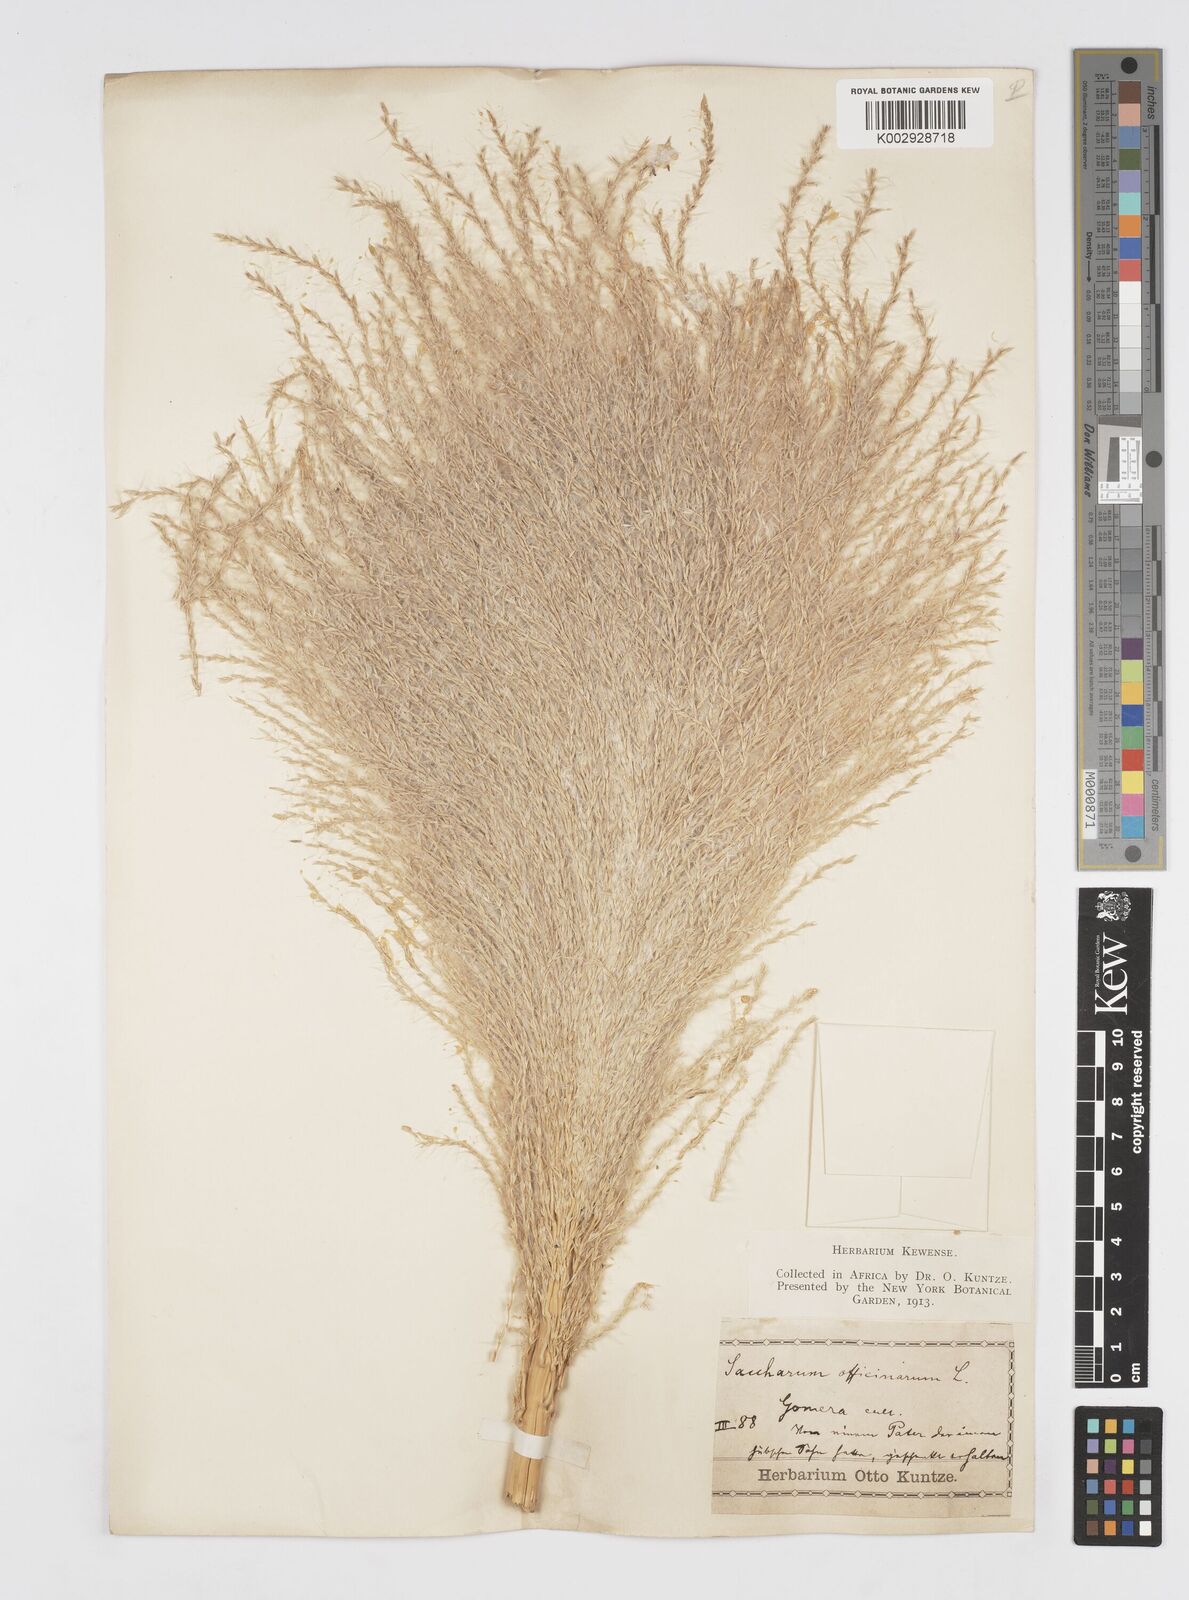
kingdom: Plantae
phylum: Tracheophyta
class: Liliopsida
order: Poales
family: Poaceae
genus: Saccharum
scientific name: Saccharum officinarum
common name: Sugarcane
